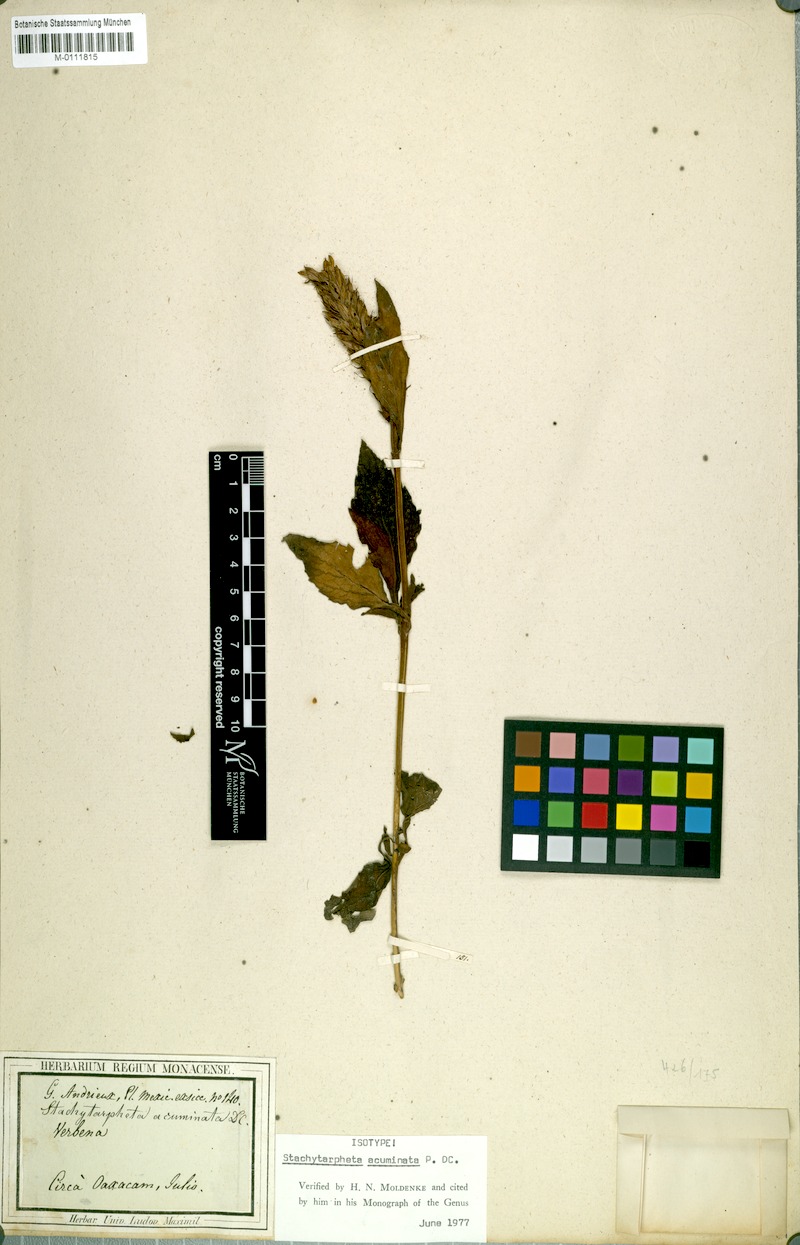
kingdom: Plantae
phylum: Tracheophyta
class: Magnoliopsida
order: Lamiales
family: Verbenaceae
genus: Stachytarpheta
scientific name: Stachytarpheta acuminata
